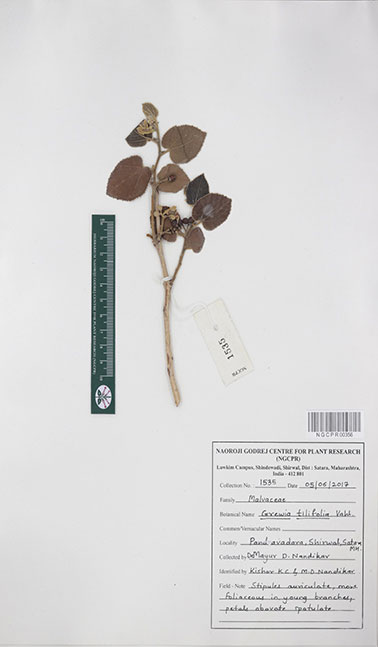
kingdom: Plantae
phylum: Tracheophyta
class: Magnoliopsida
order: Malvales
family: Malvaceae
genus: Grewia
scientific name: Grewia tiliifolia
